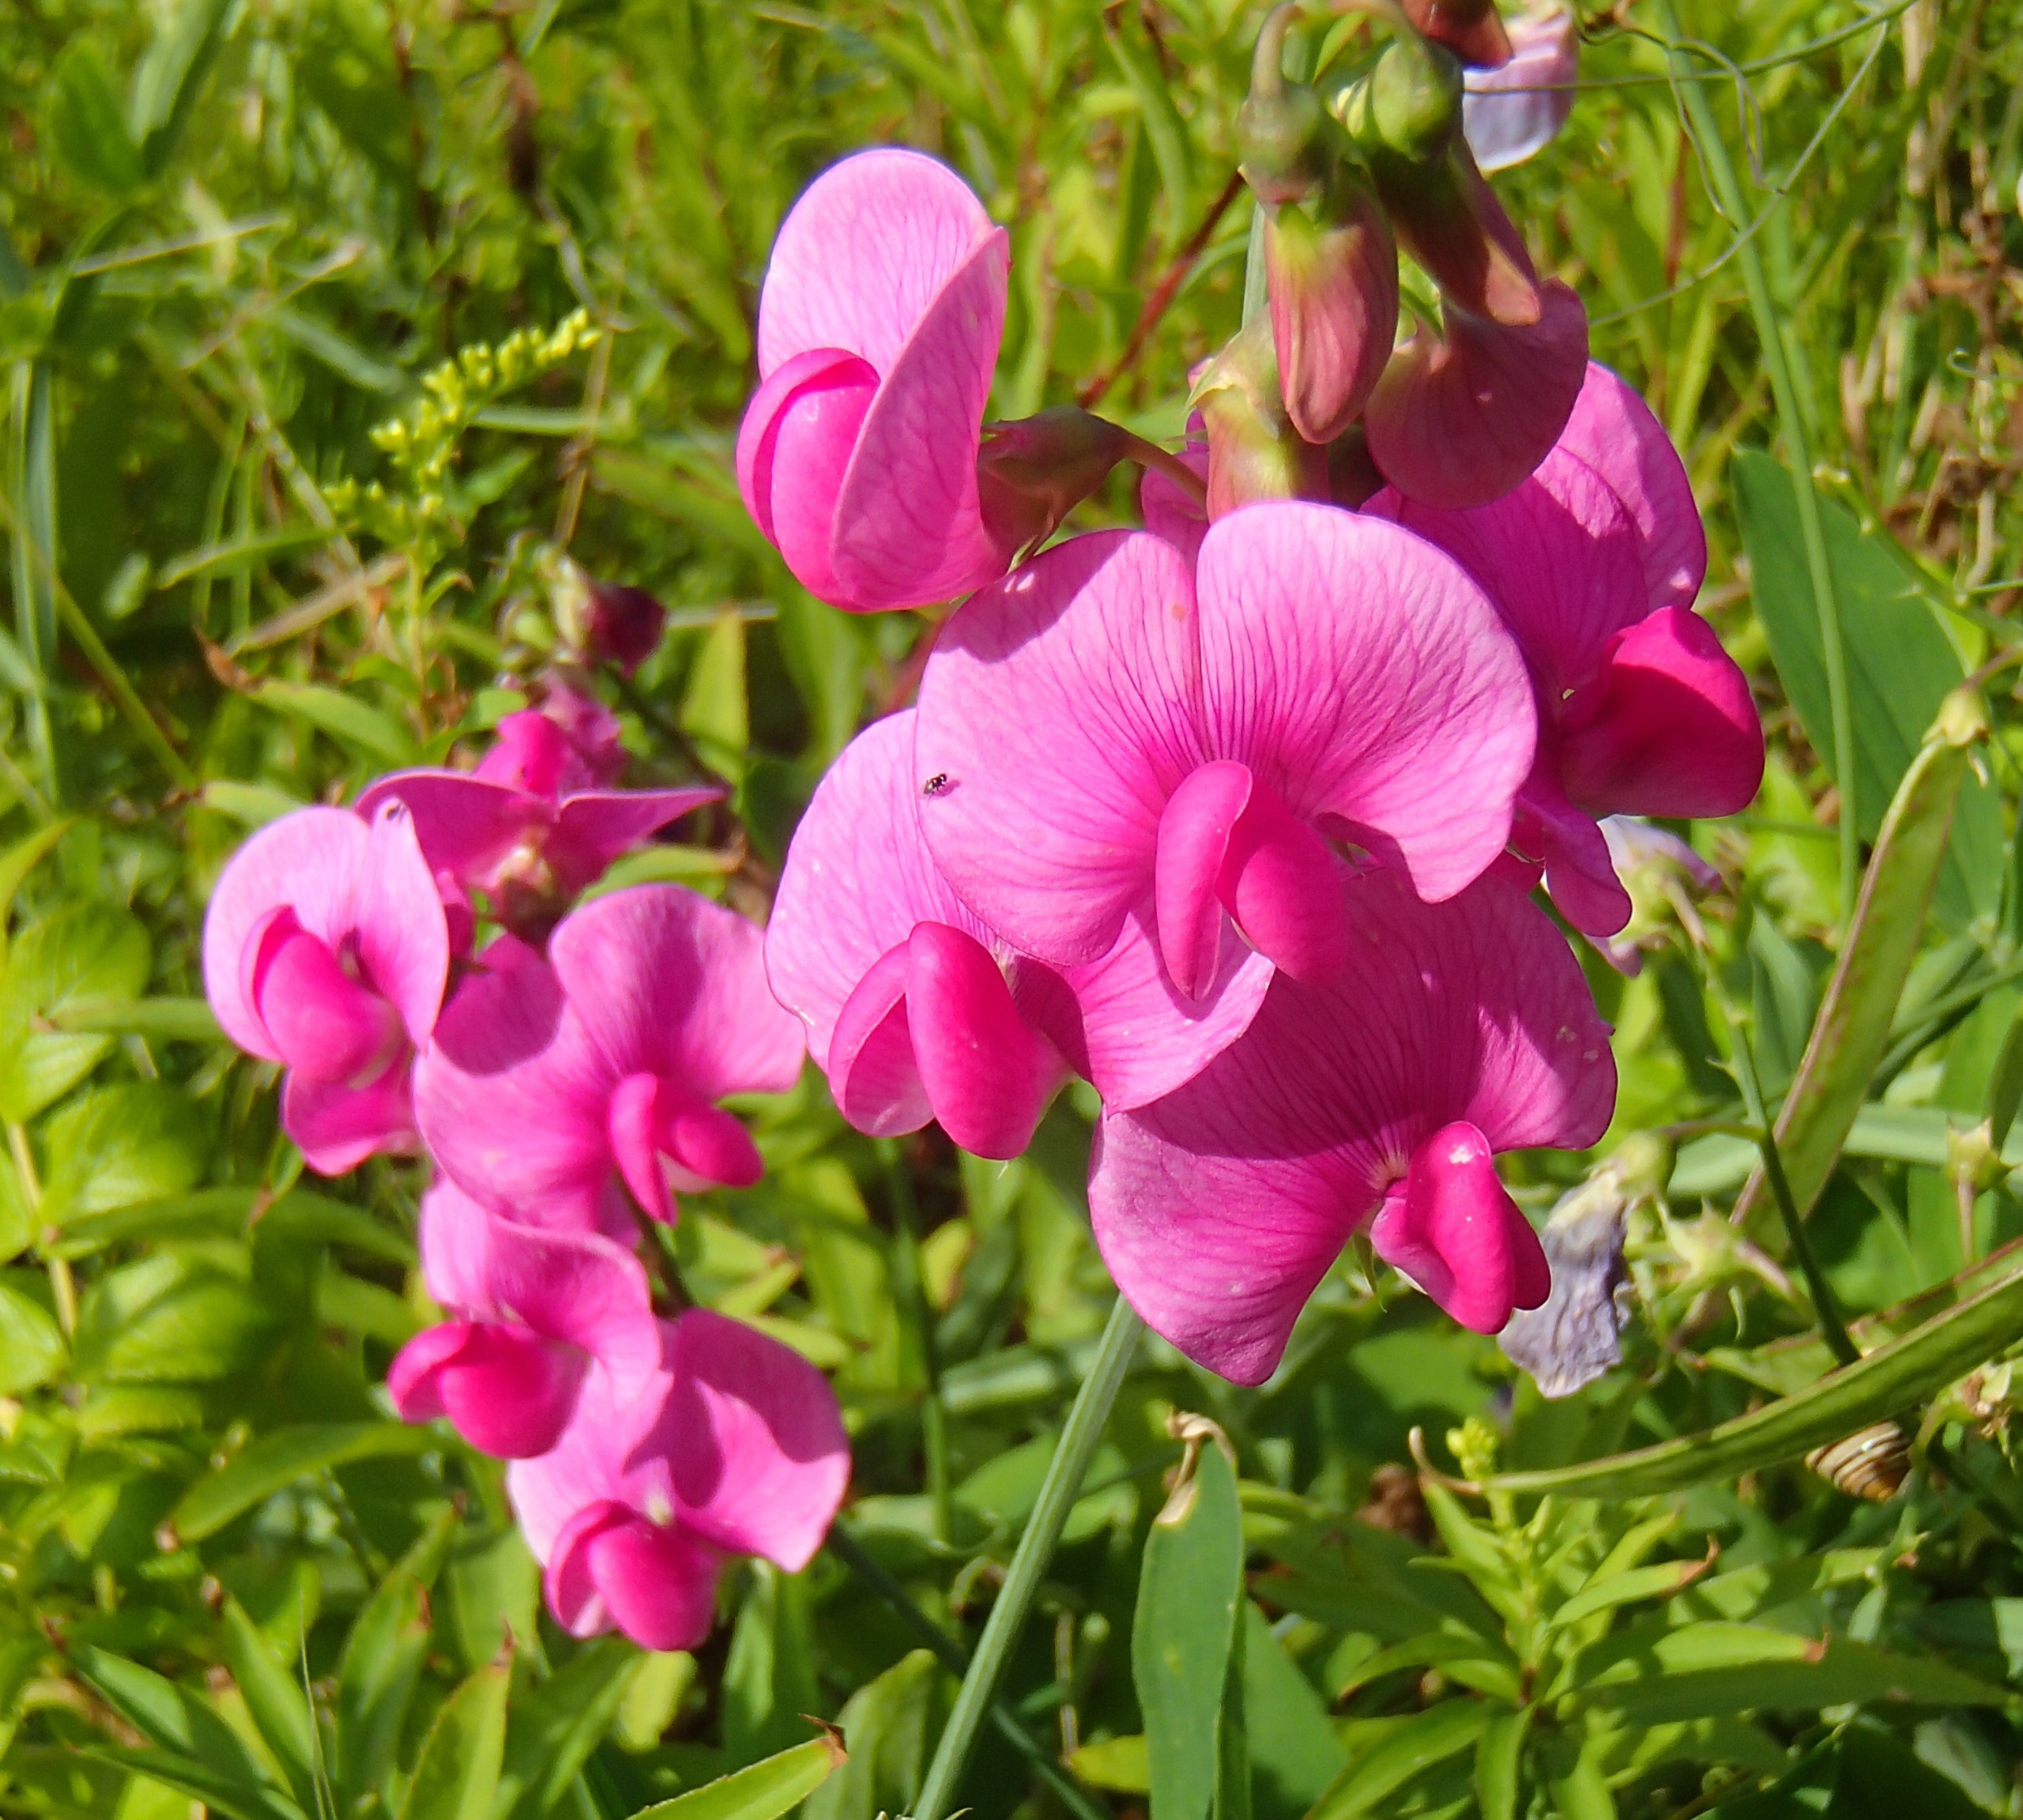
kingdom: Plantae
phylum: Tracheophyta
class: Magnoliopsida
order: Fabales
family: Fabaceae
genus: Lathyrus
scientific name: Lathyrus latifolius
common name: Flerårig ærteblomst
